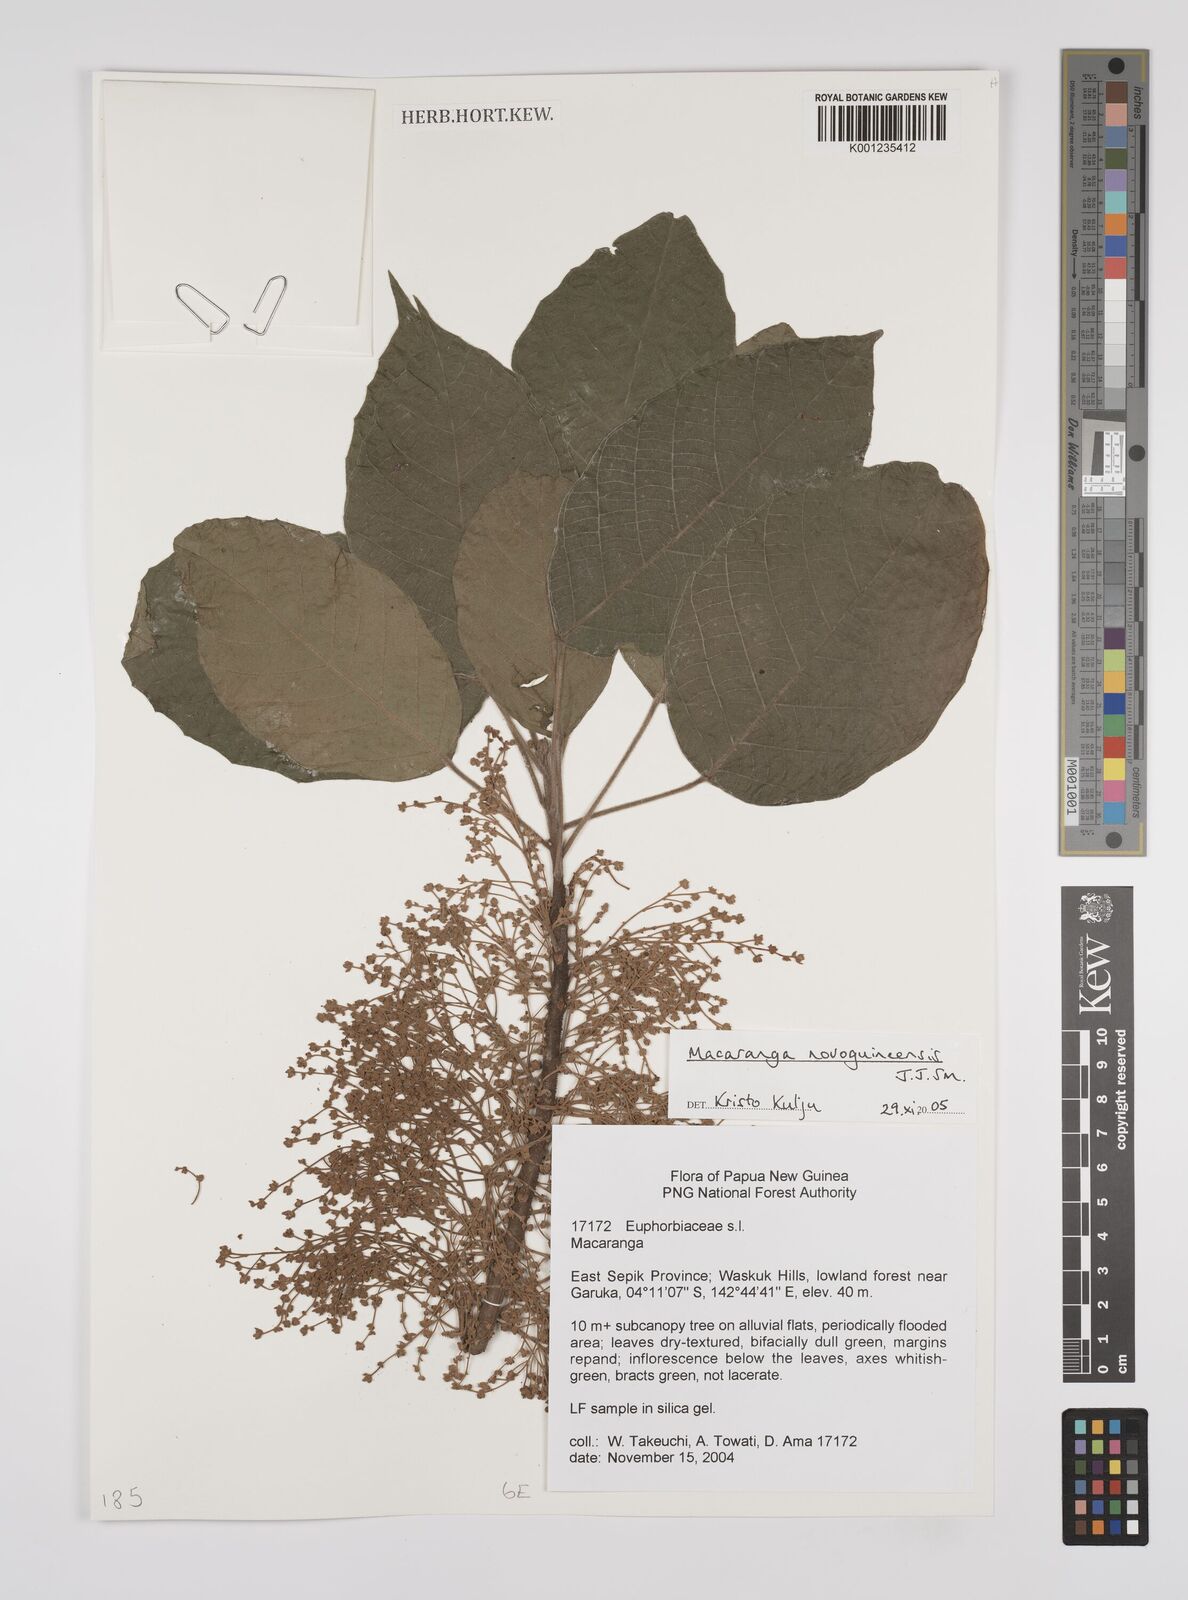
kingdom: Plantae
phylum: Tracheophyta
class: Magnoliopsida
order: Malpighiales
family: Euphorbiaceae
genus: Macaranga
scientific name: Macaranga novoguineensis
